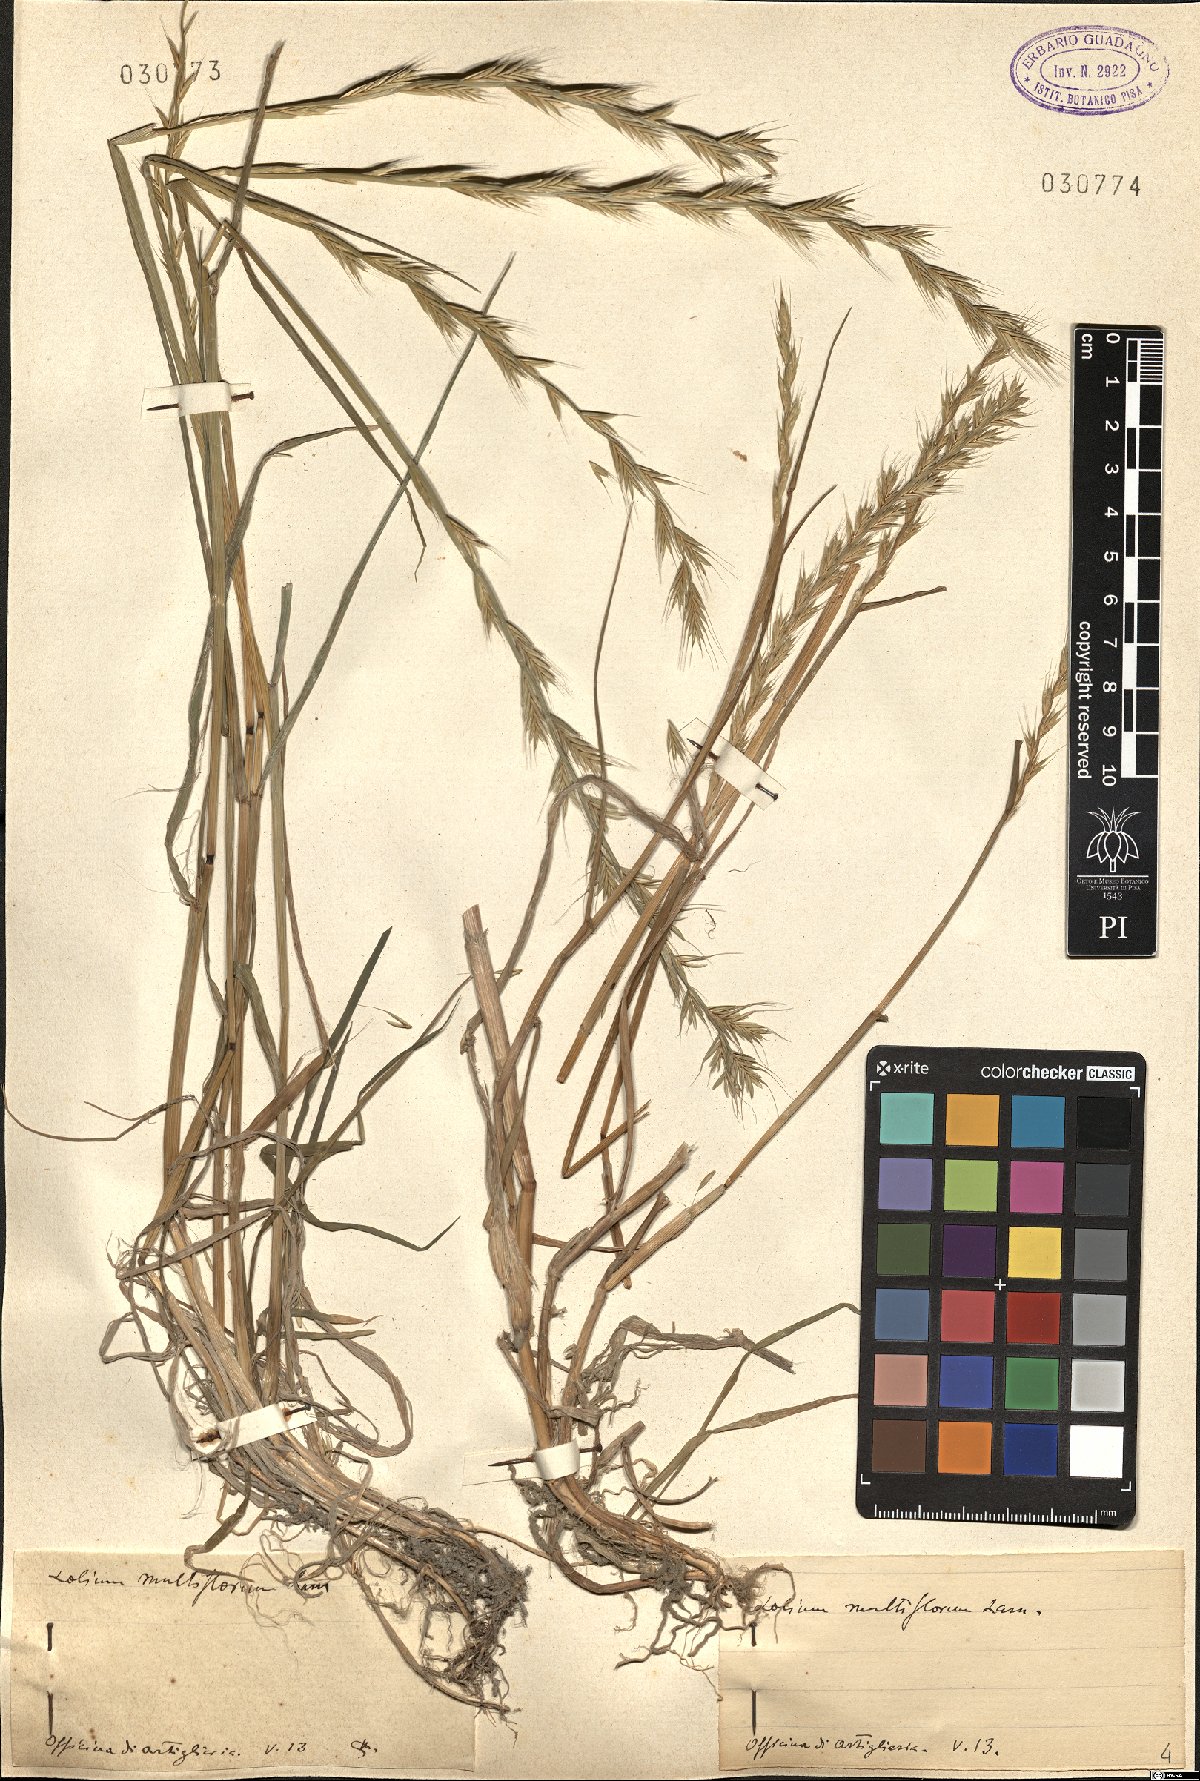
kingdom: Plantae
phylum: Tracheophyta
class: Liliopsida
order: Poales
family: Poaceae
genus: Lolium
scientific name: Lolium multiflorum
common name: Annual ryegrass
